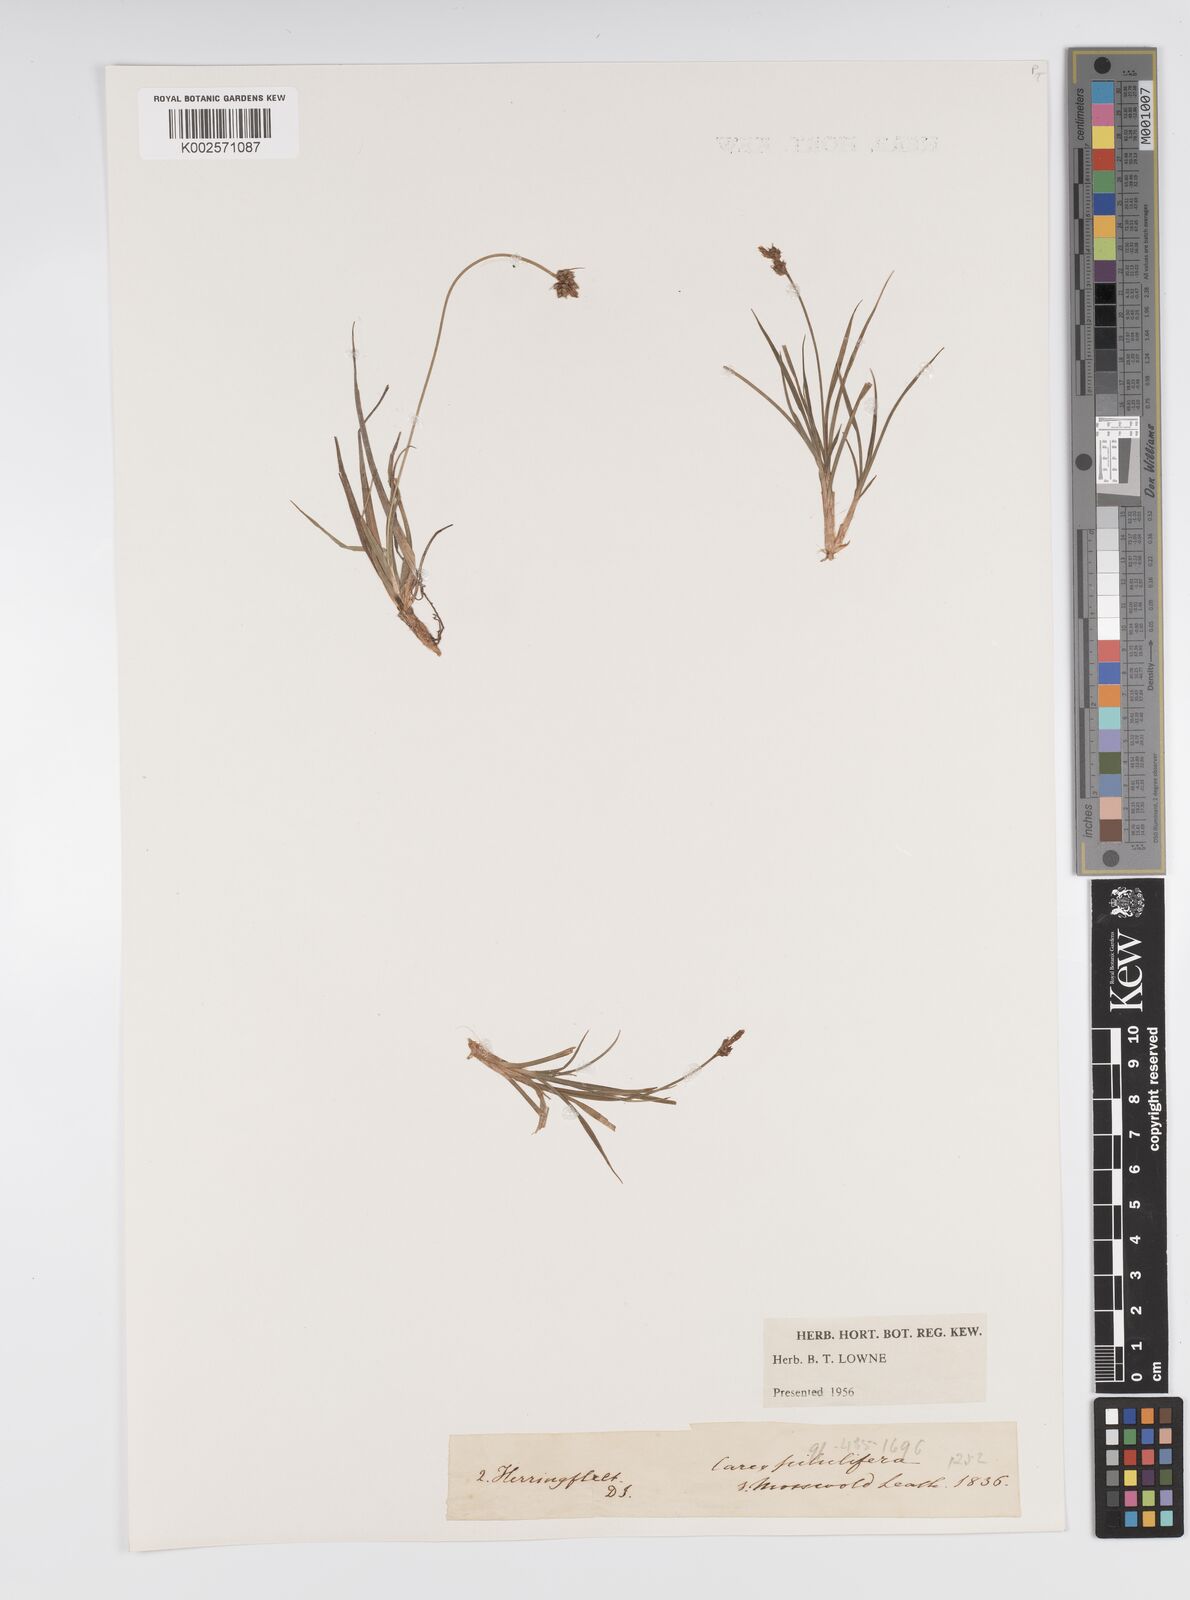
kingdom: Plantae
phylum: Tracheophyta
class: Liliopsida
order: Poales
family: Cyperaceae
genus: Carex
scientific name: Carex pilulifera
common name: Pill sedge
